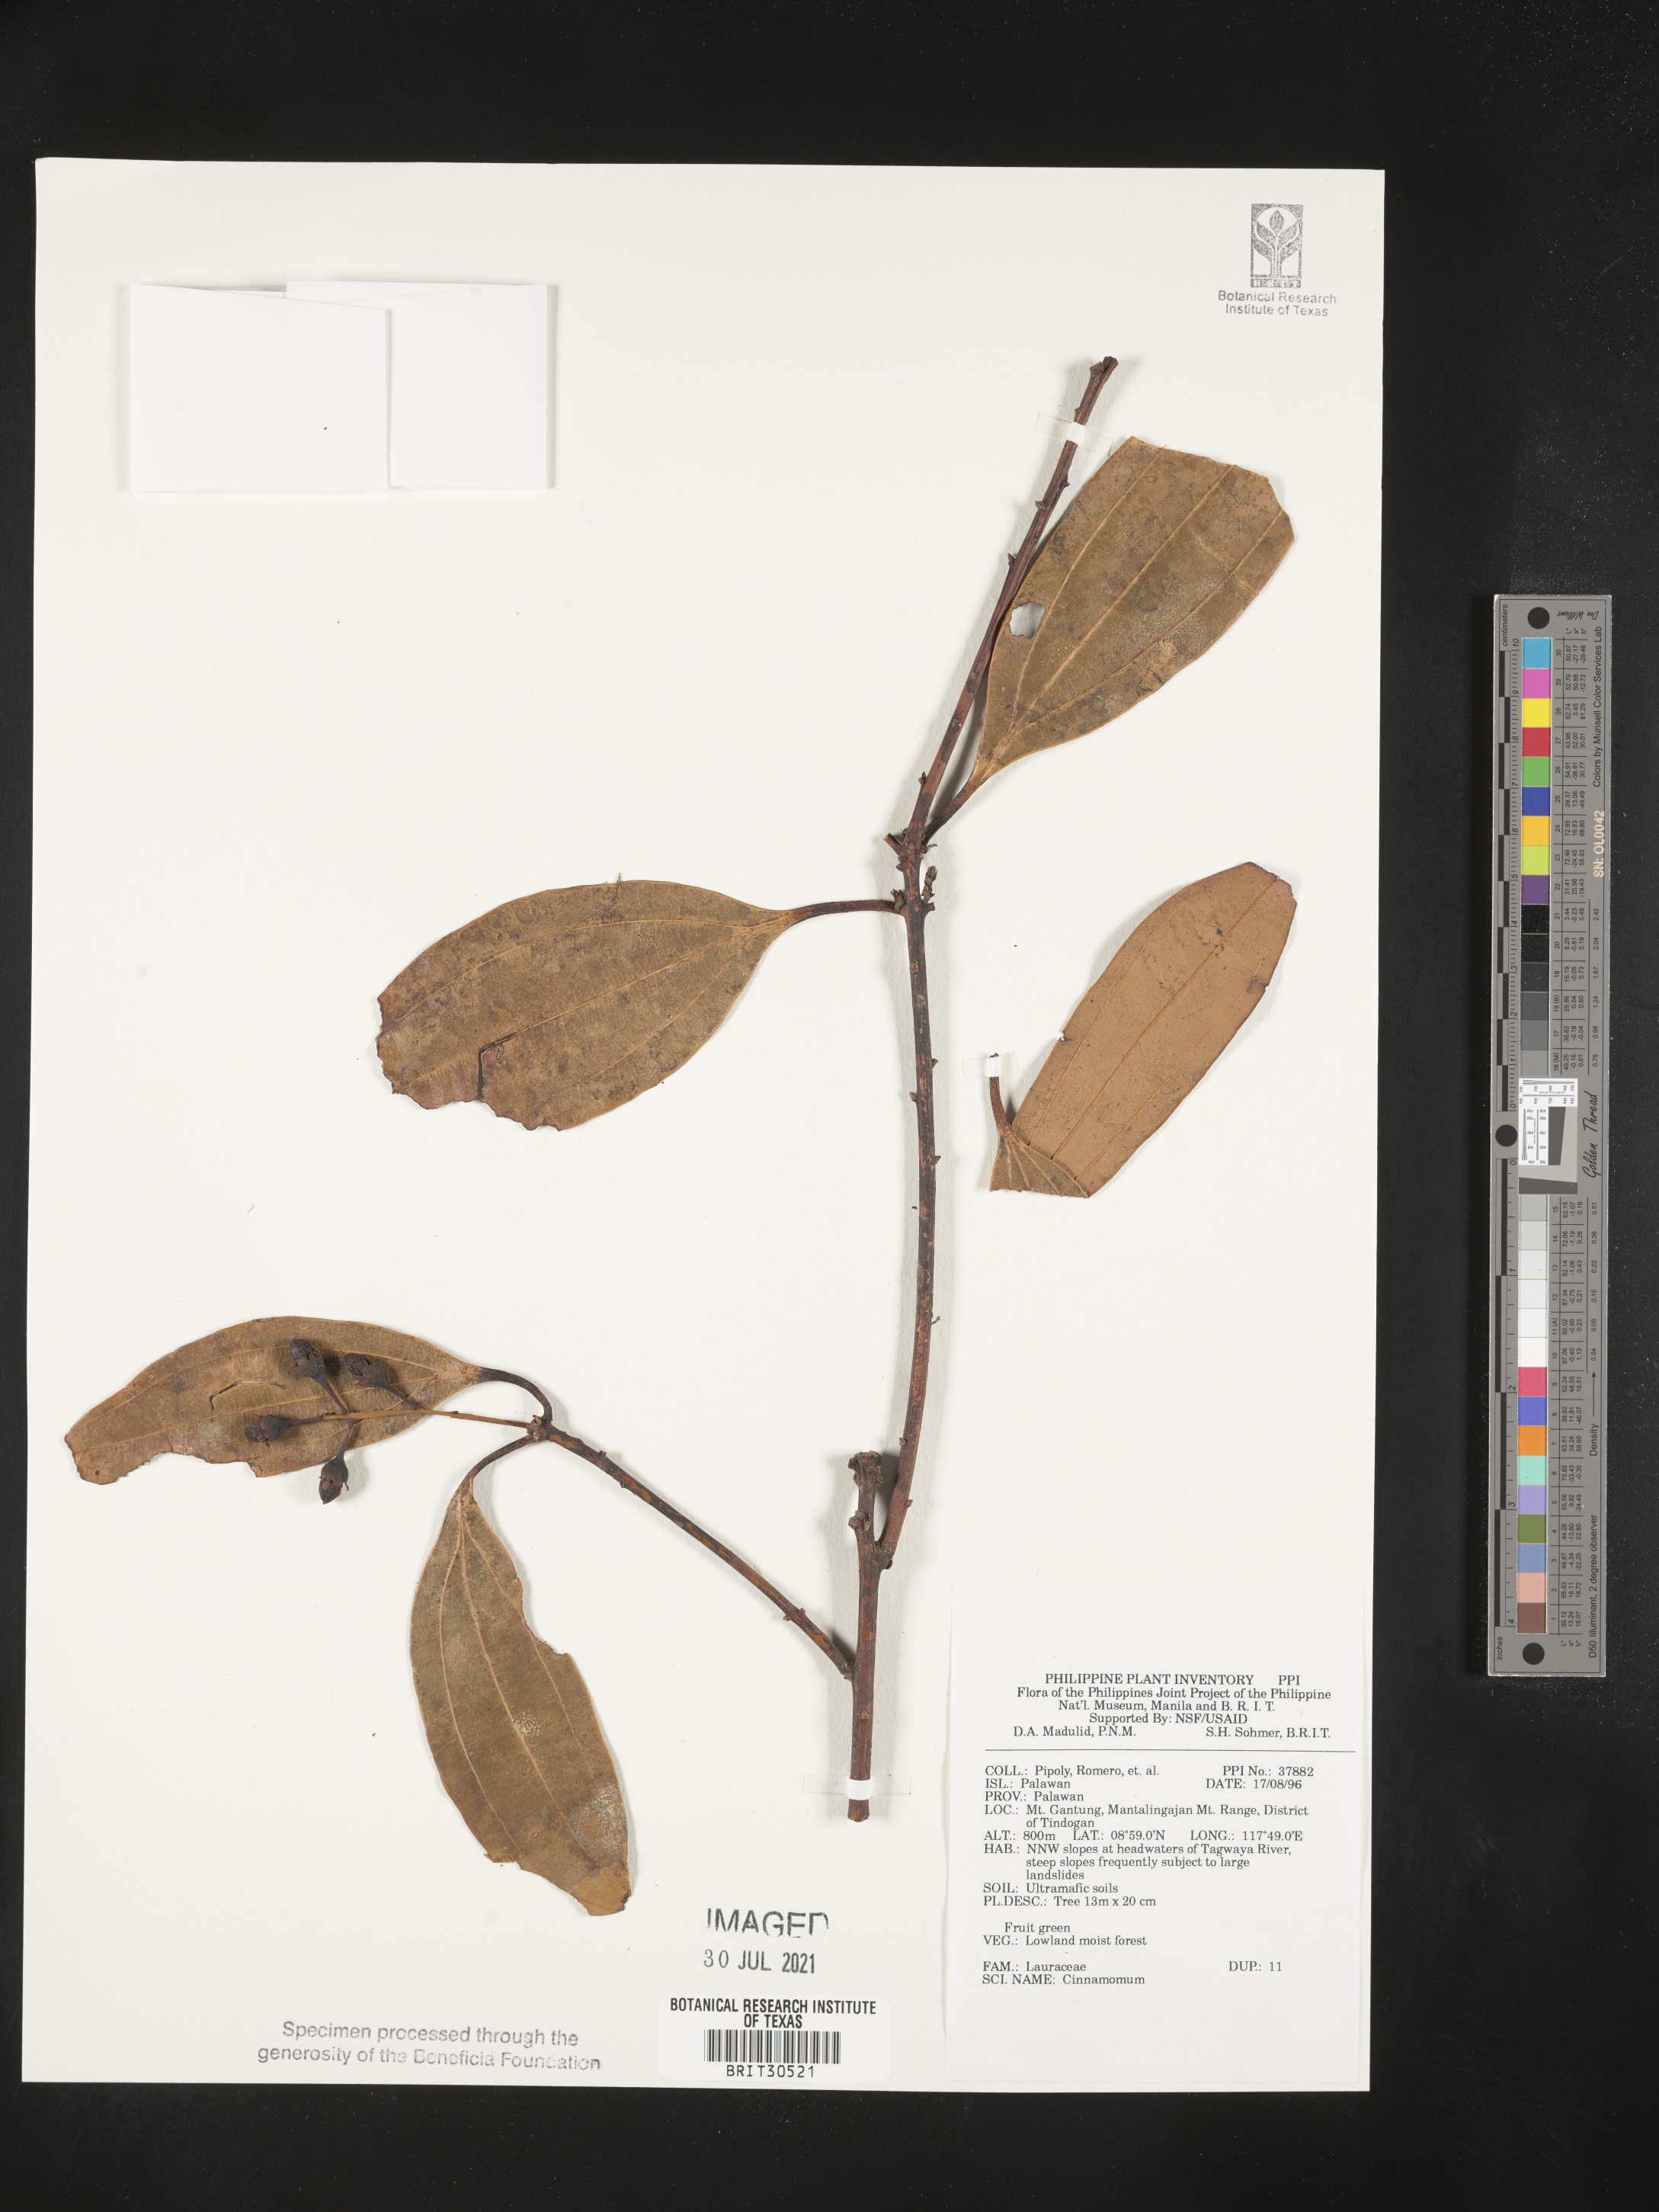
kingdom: Plantae
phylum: Tracheophyta
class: Magnoliopsida
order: Laurales
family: Lauraceae
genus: Cinnamomum
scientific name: Cinnamomum
